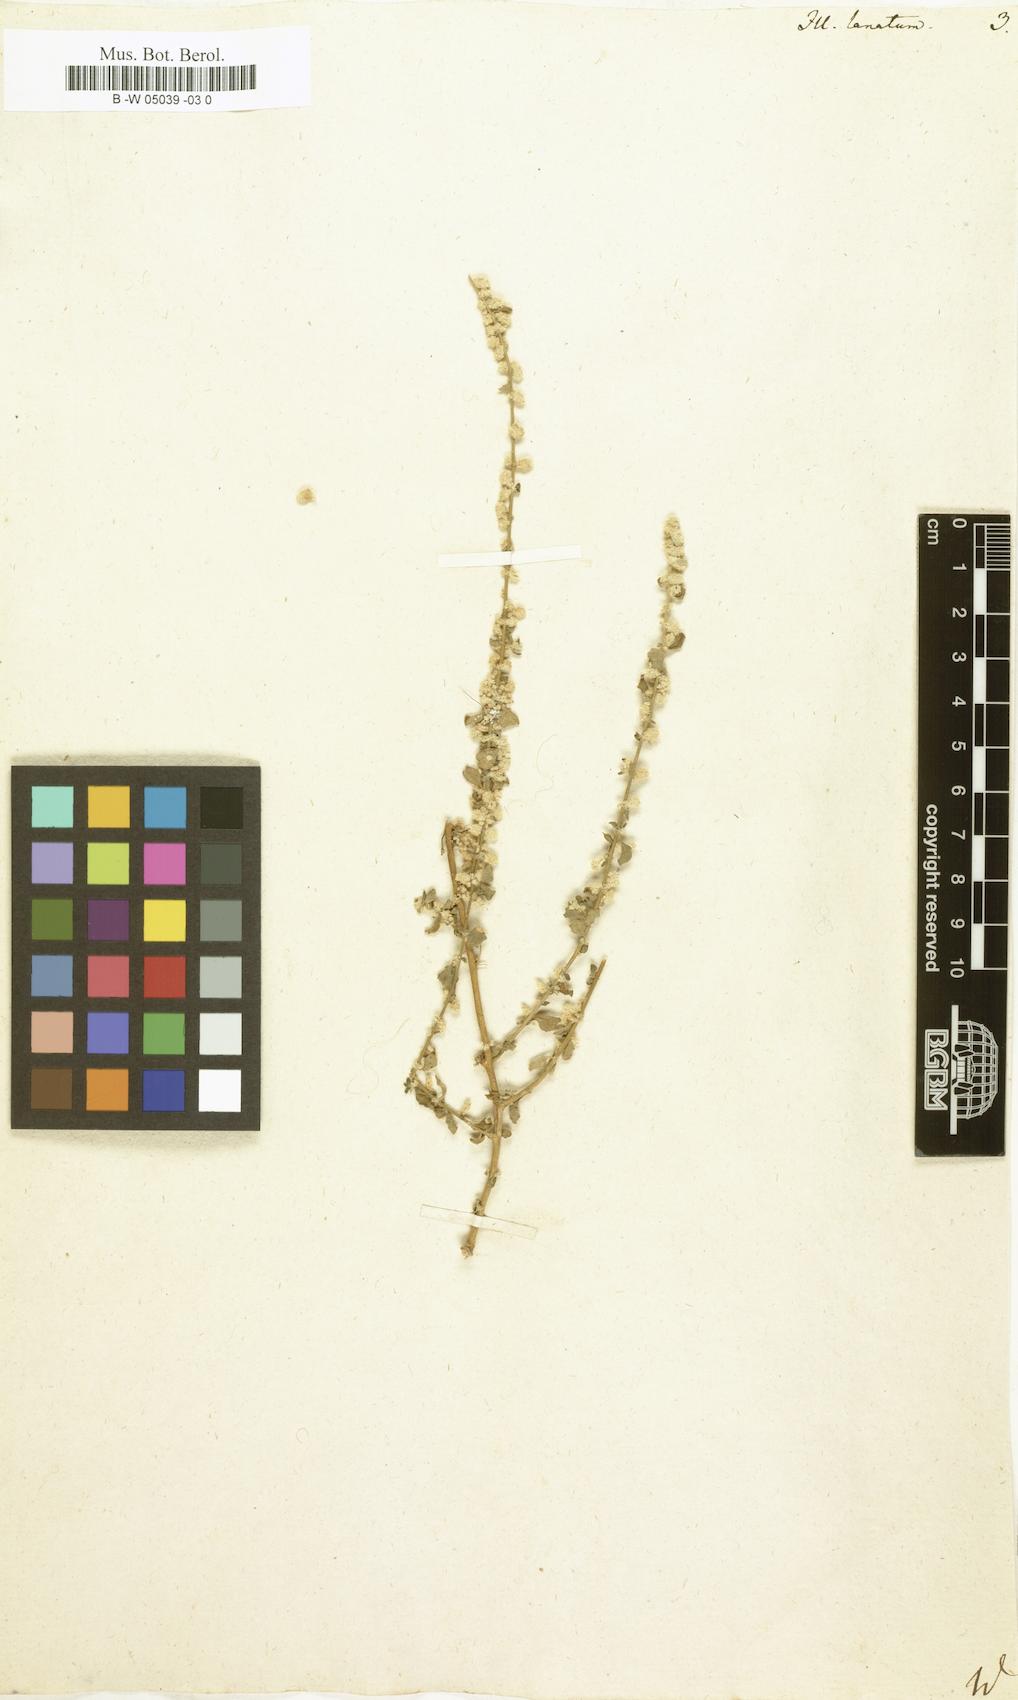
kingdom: Plantae
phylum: Tracheophyta
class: Magnoliopsida
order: Caryophyllales
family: Amaranthaceae
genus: Ouret
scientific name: Ouret lanata
